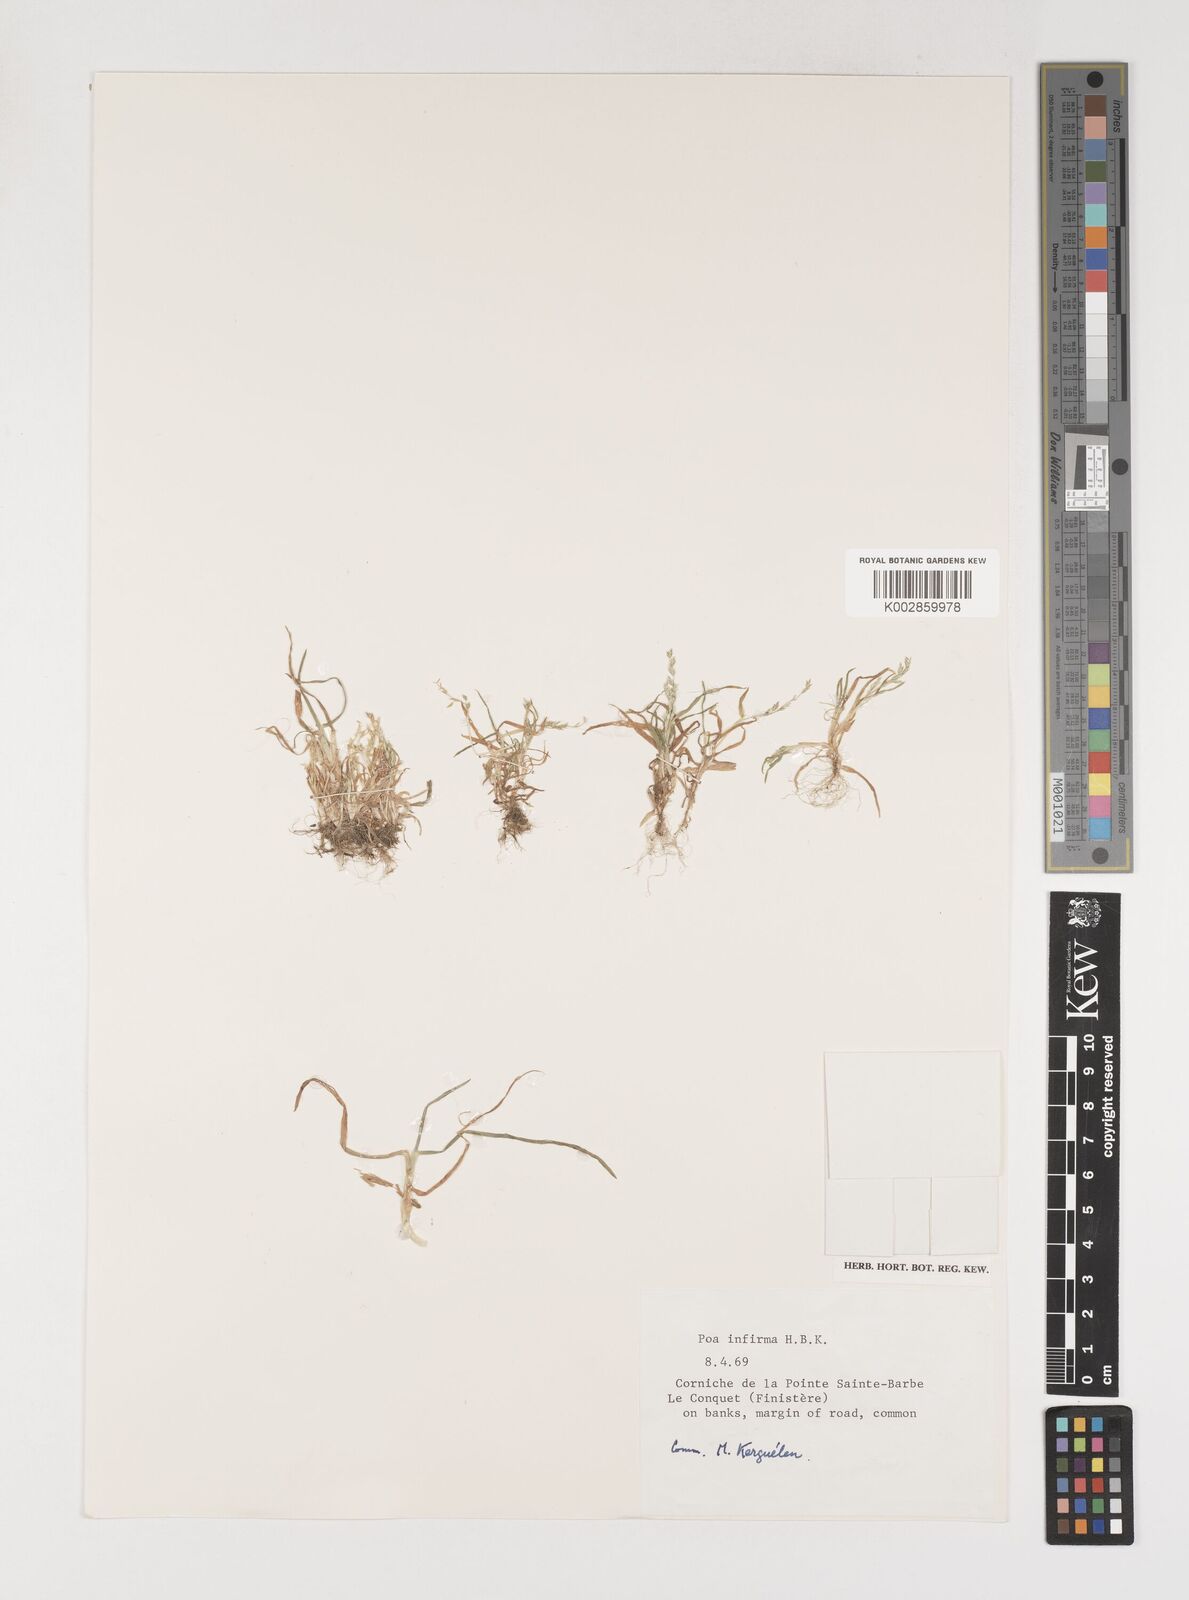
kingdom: Plantae
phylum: Tracheophyta
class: Liliopsida
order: Poales
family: Poaceae
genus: Poa
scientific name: Poa infirma
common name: Weak bluegrass
